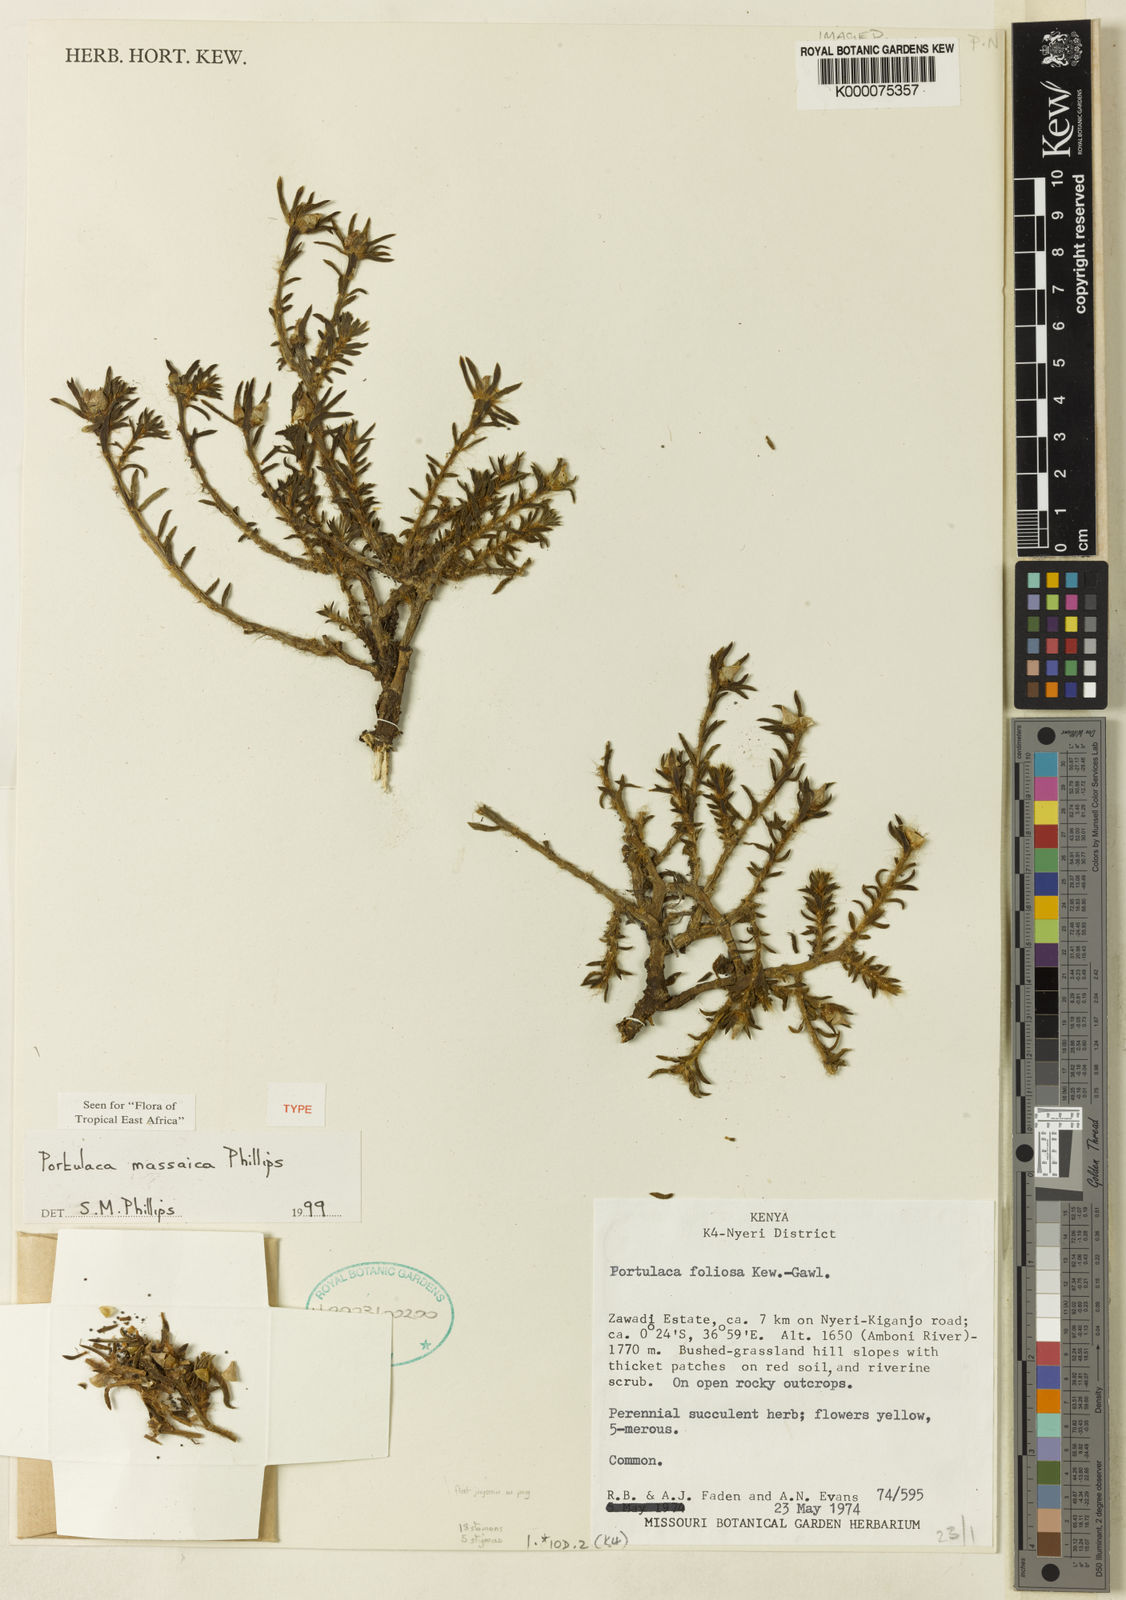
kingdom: Plantae
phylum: Tracheophyta
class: Magnoliopsida
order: Caryophyllales
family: Portulacaceae
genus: Portulaca
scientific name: Portulaca massaica
